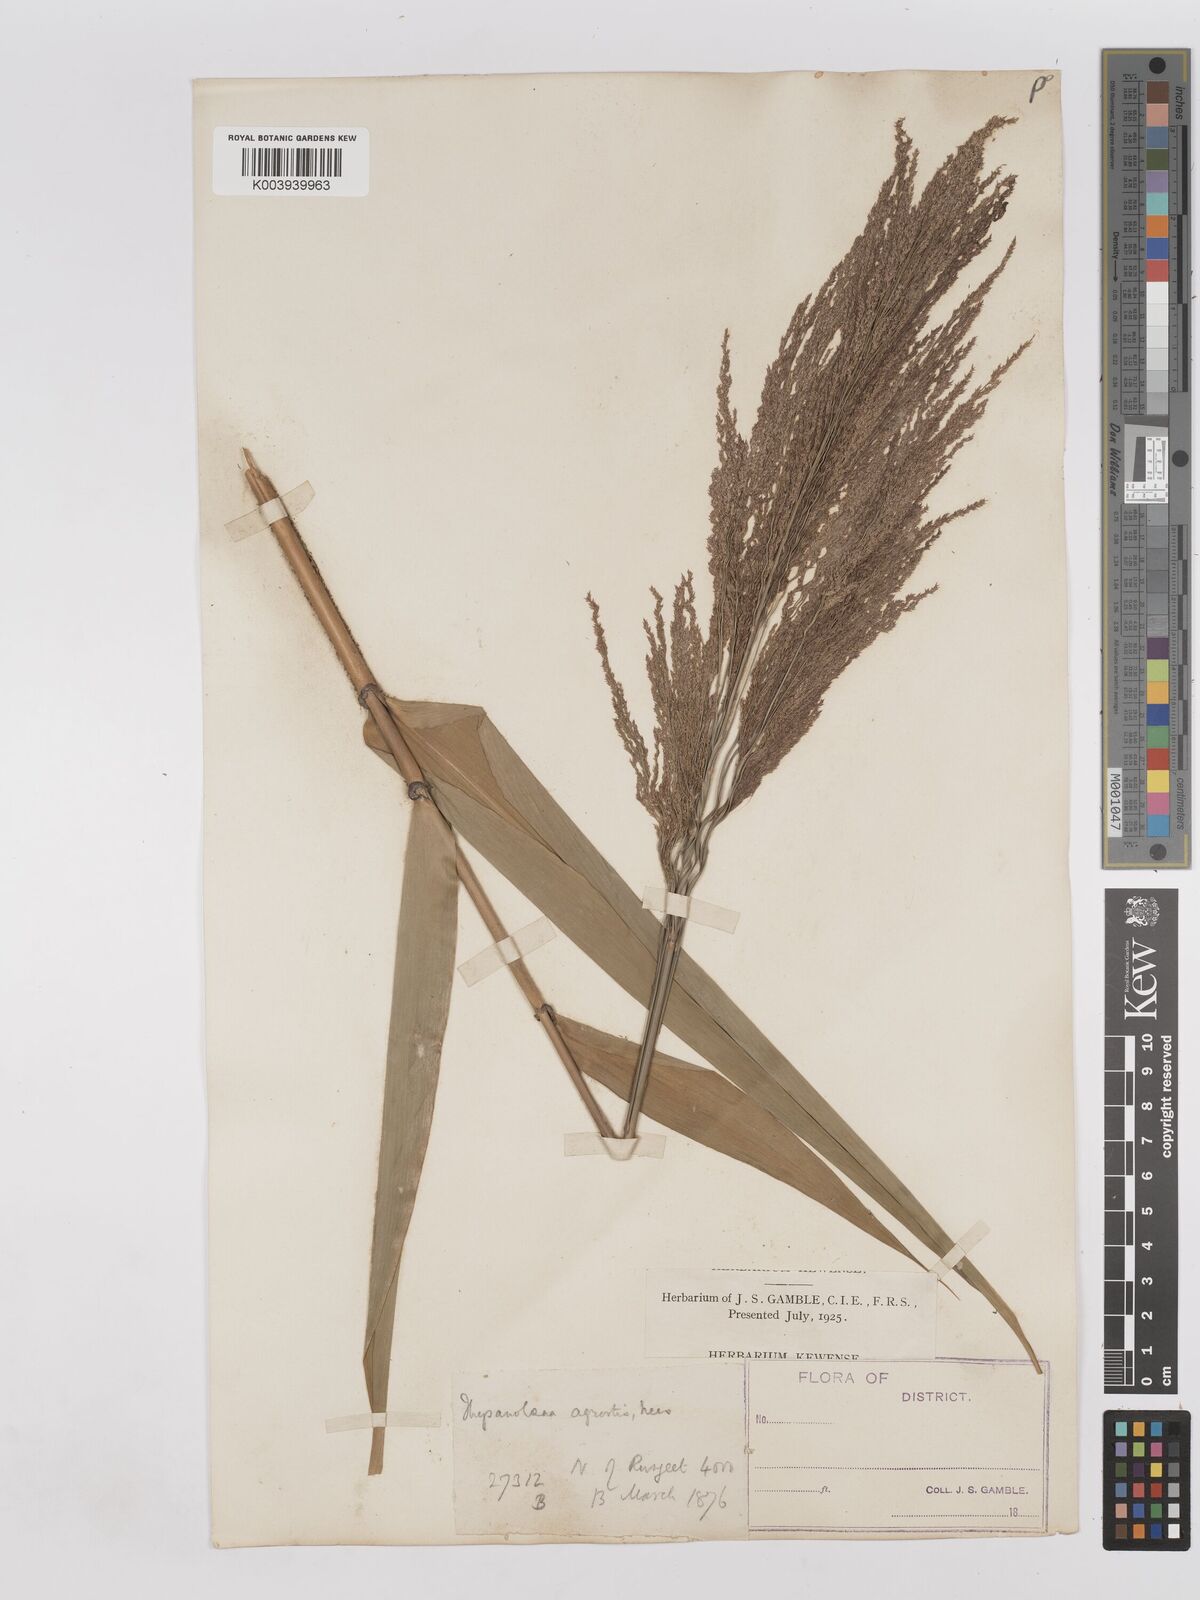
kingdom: Plantae
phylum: Tracheophyta
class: Liliopsida
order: Poales
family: Poaceae
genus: Thysanolaena
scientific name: Thysanolaena latifolia
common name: Tiger grass
